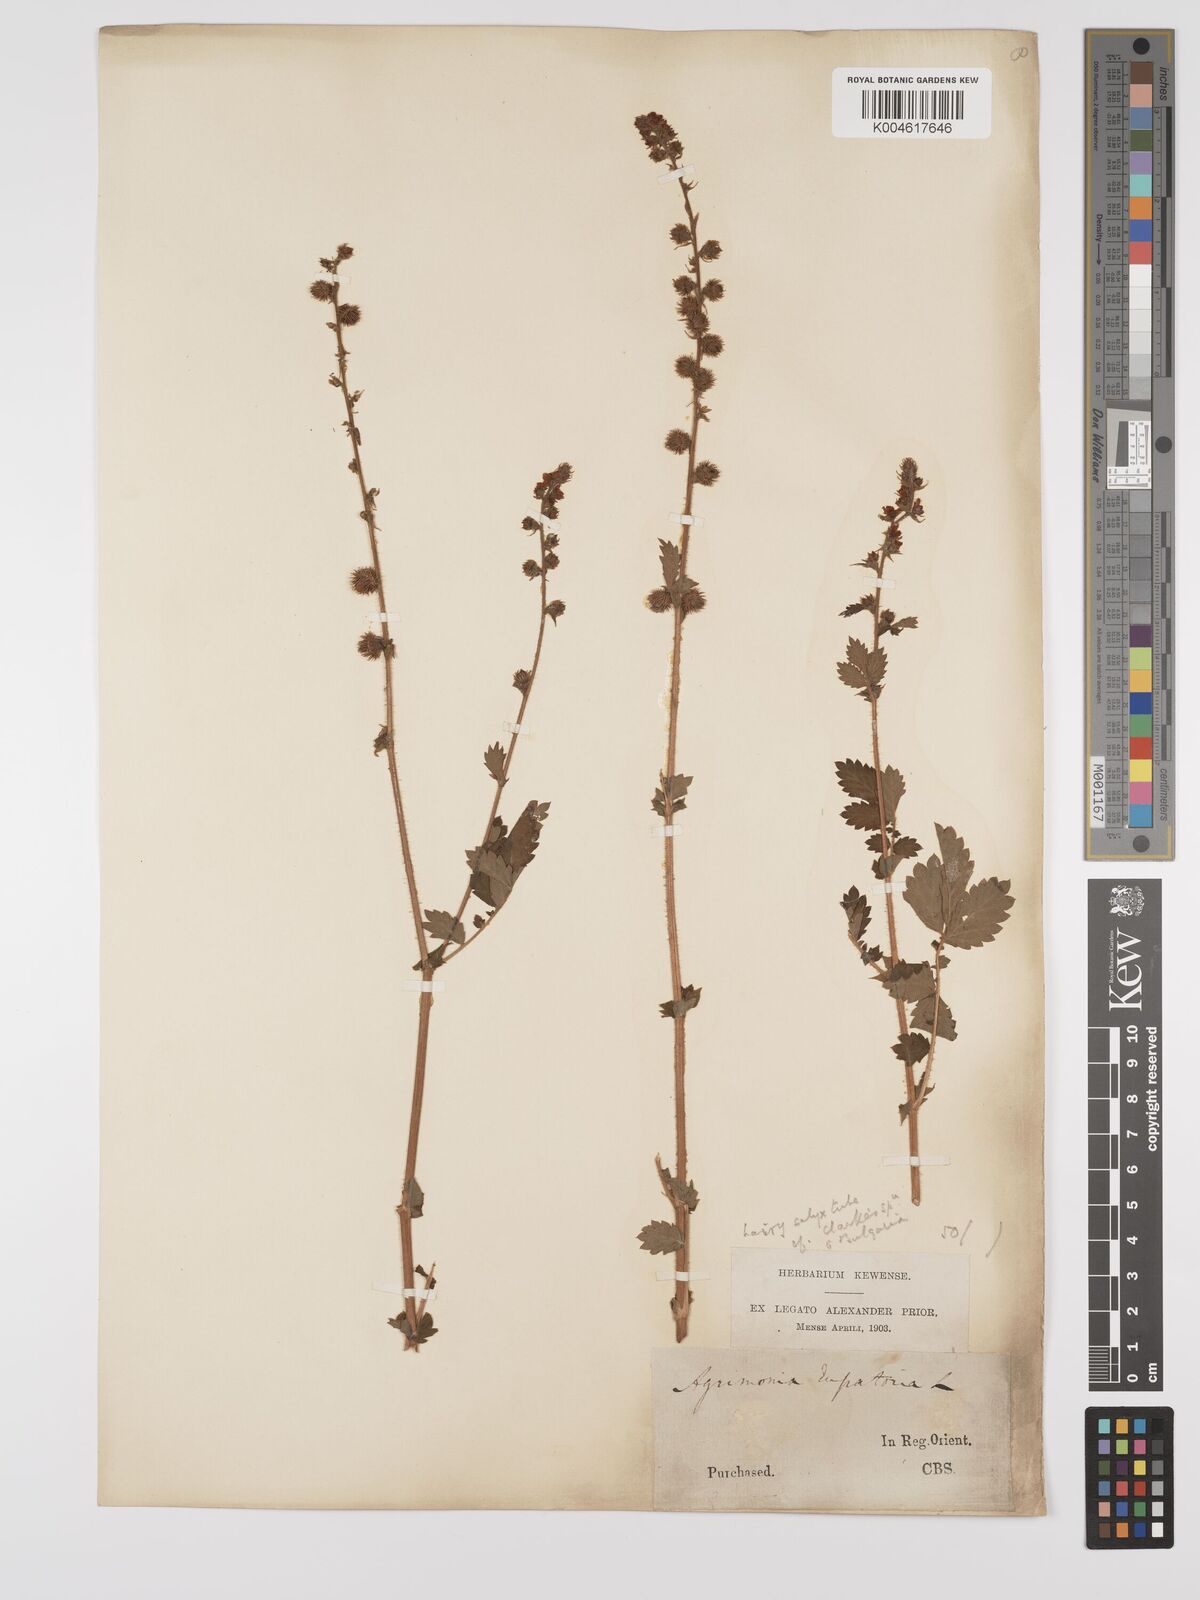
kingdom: Plantae
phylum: Tracheophyta
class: Magnoliopsida
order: Rosales
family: Rosaceae
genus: Agrimonia
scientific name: Agrimonia eupatoria
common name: Agrimony
